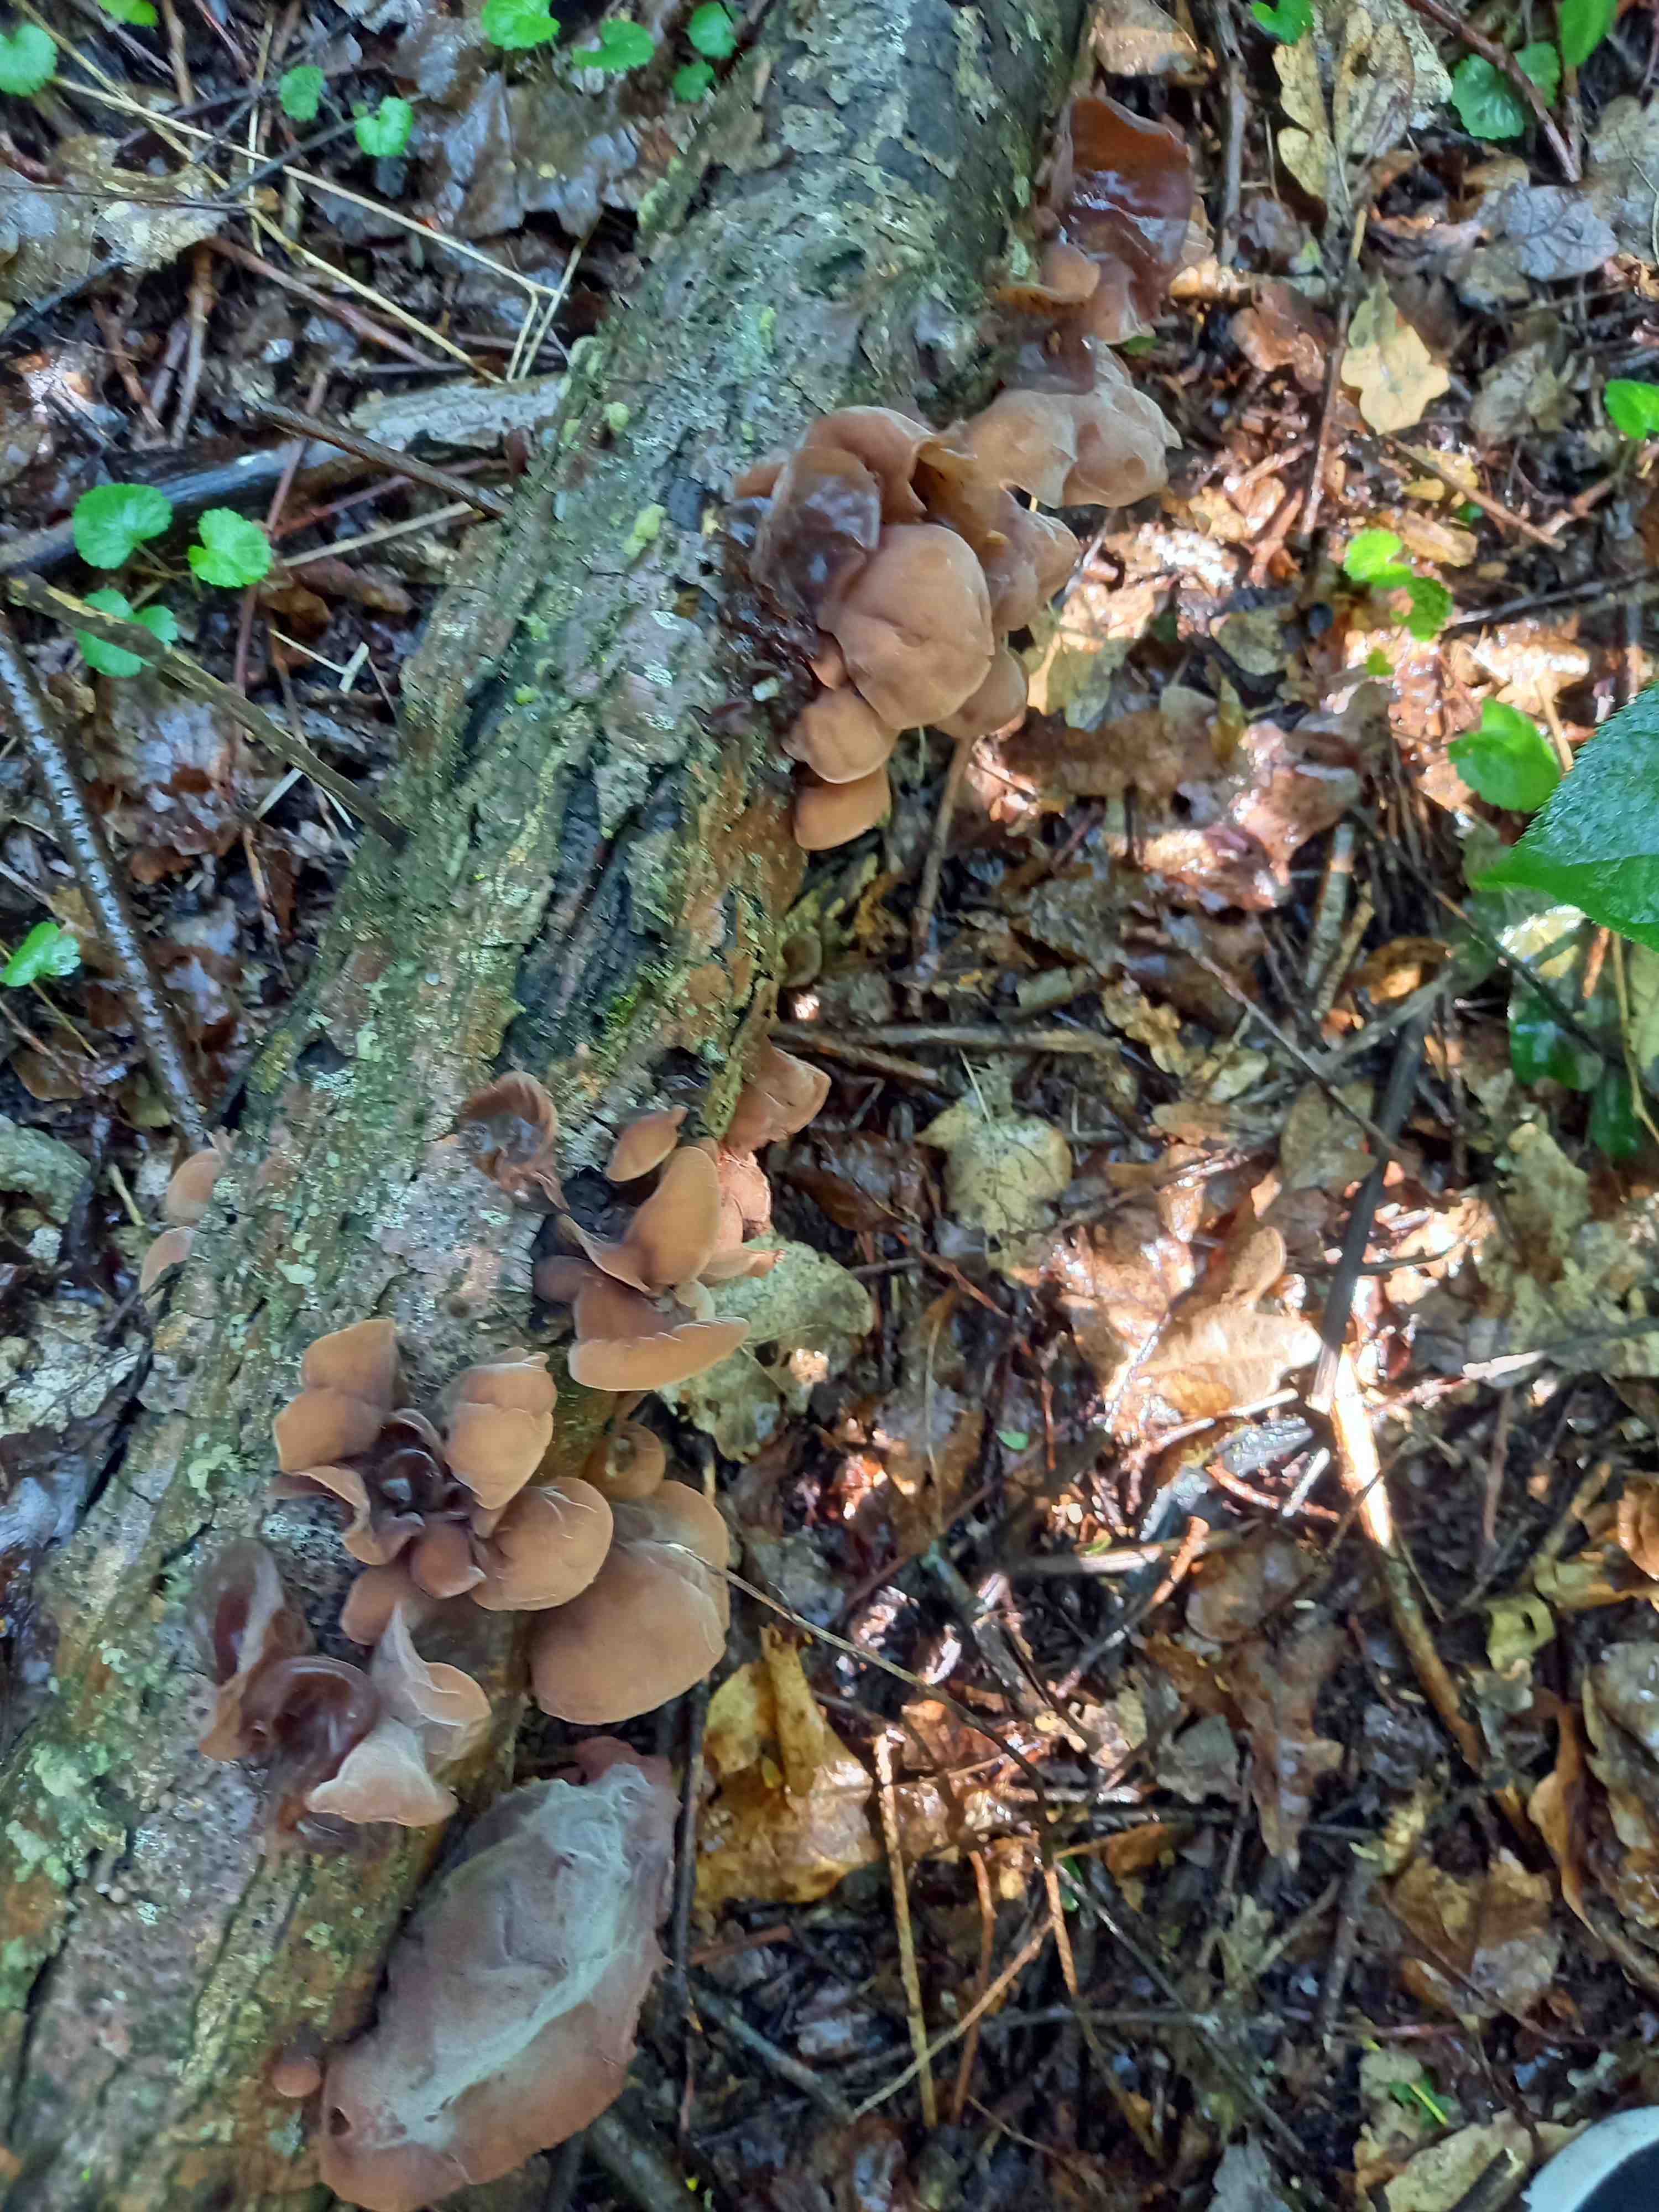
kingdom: Fungi
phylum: Basidiomycota
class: Agaricomycetes
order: Auriculariales
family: Auriculariaceae
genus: Auricularia
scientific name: Auricularia auricula-judae
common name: almindelig judasøre
